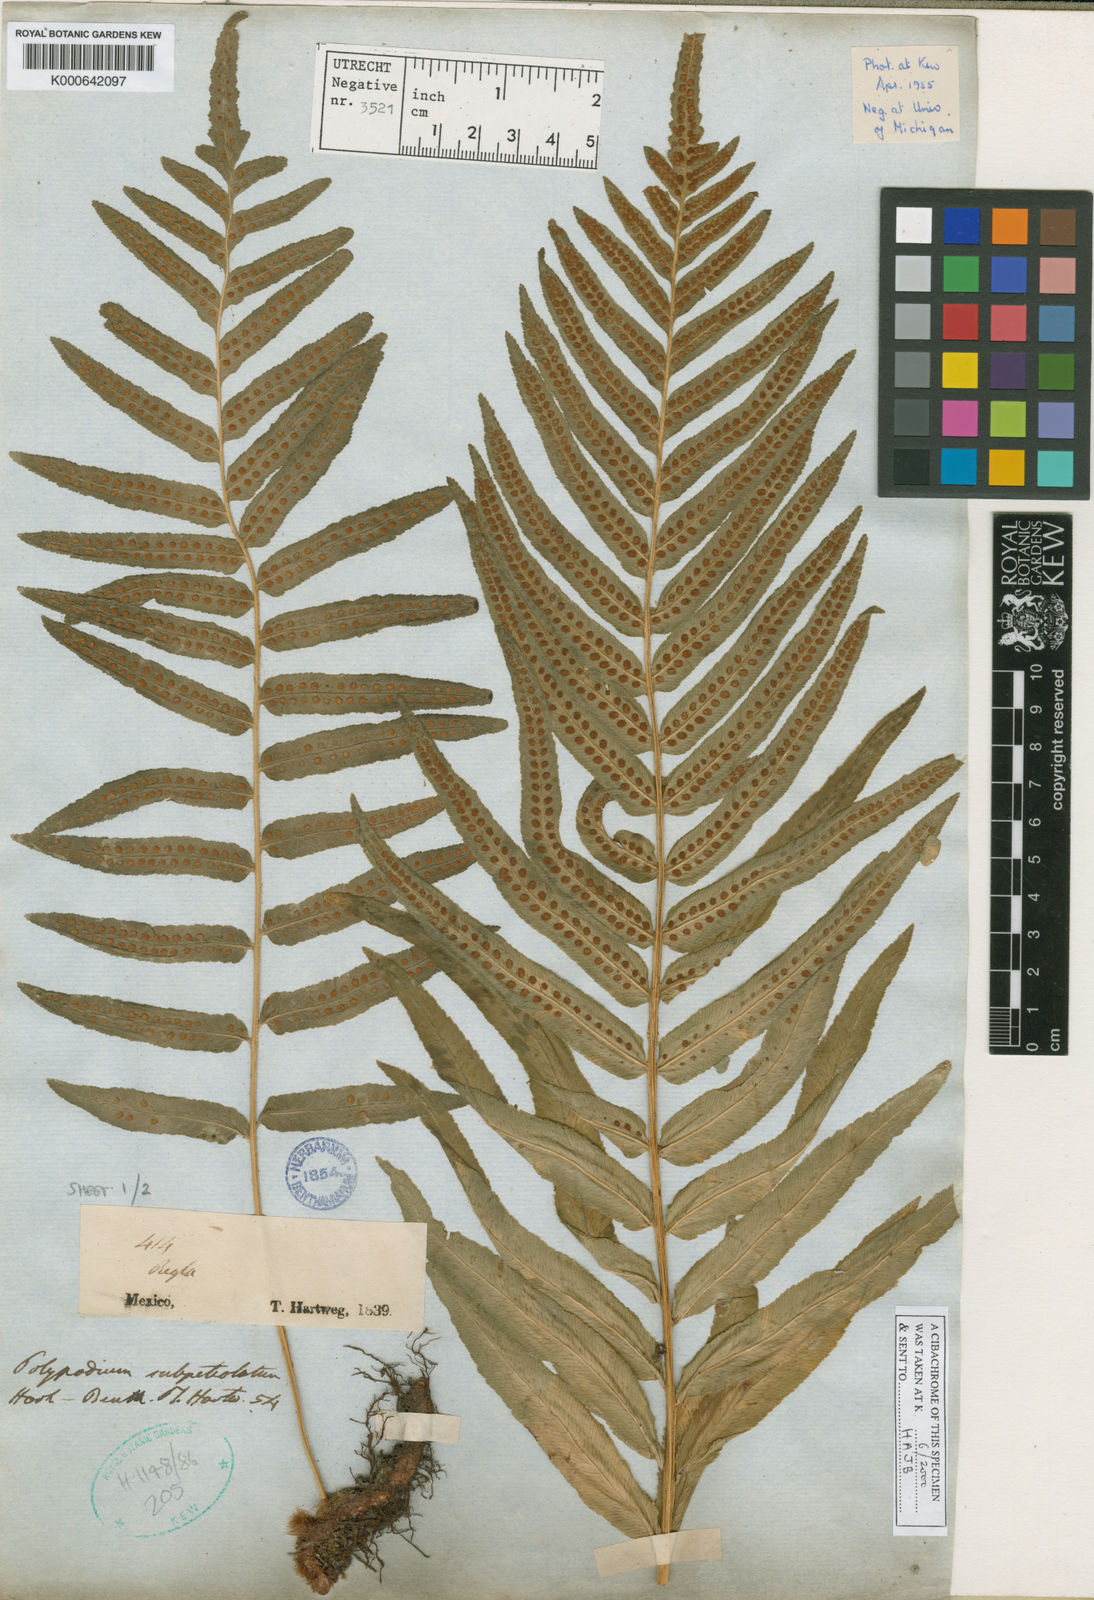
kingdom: Plantae
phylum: Tracheophyta
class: Polypodiopsida
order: Polypodiales
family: Polypodiaceae
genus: Polypodium
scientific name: Polypodium subpetiolatum
